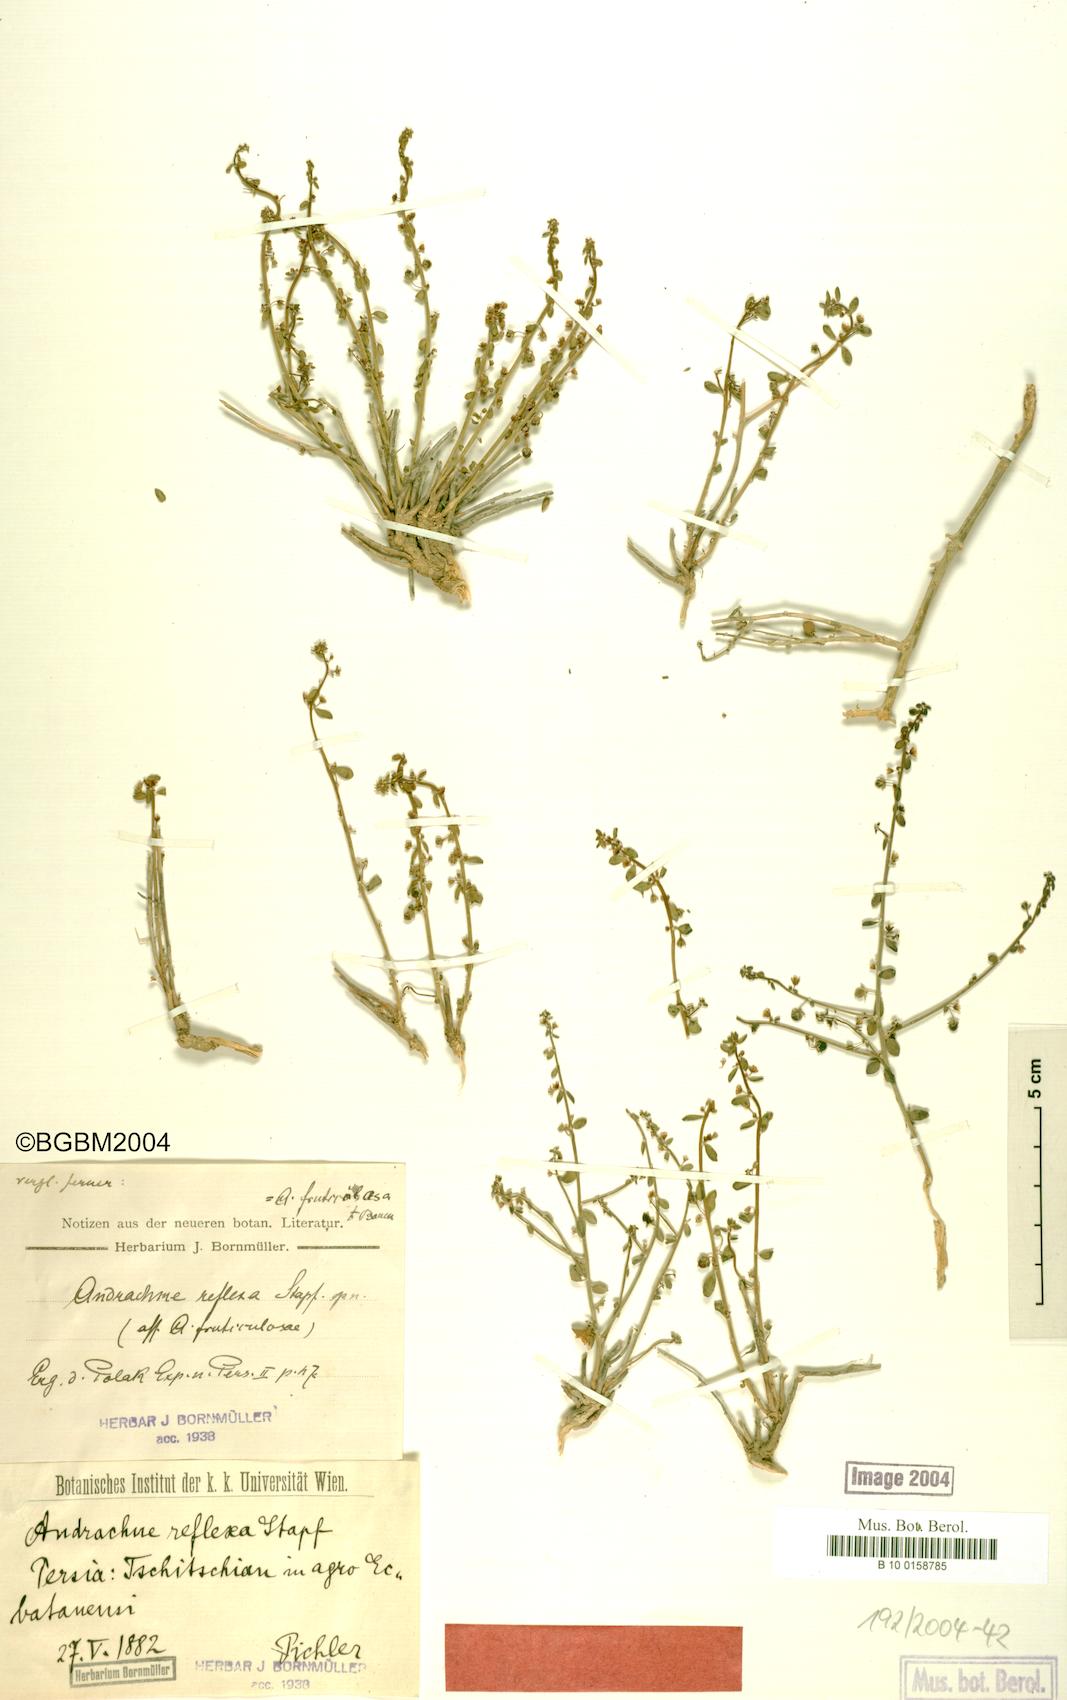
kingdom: Plantae
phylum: Tracheophyta
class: Magnoliopsida
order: Malpighiales
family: Phyllanthaceae
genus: Andrachne
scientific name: Andrachne reflexa
